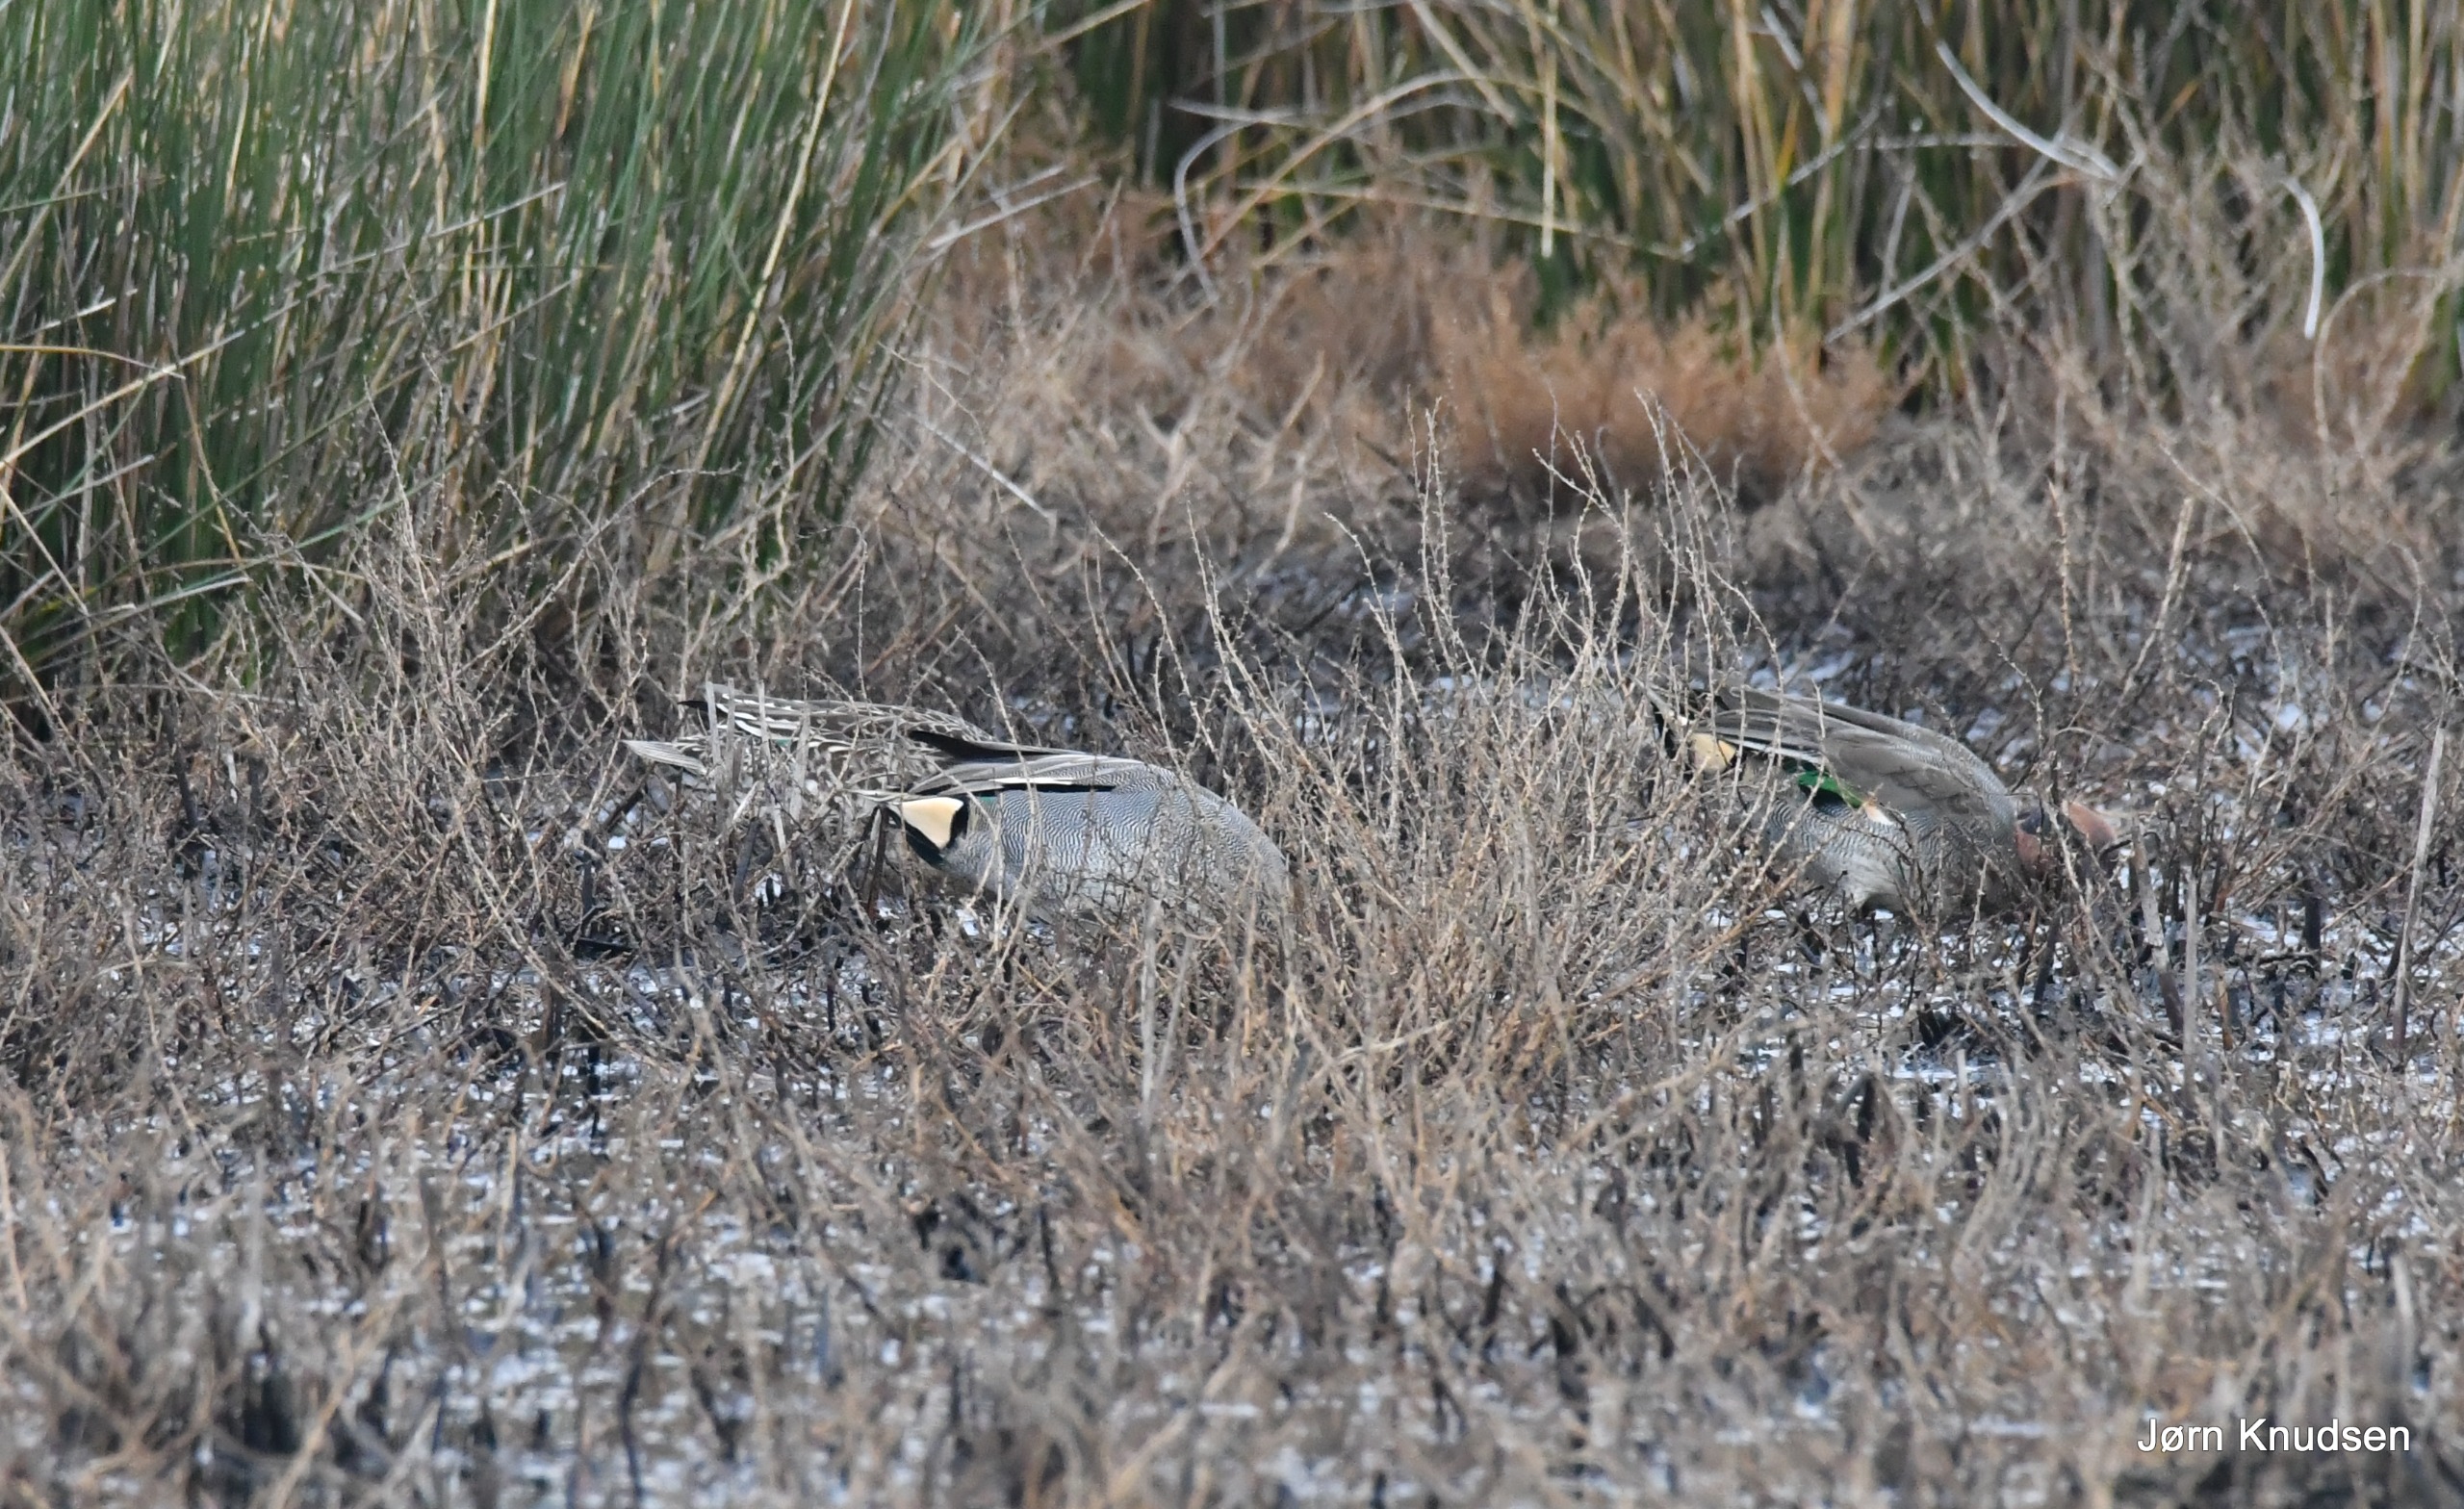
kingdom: Animalia
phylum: Chordata
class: Aves
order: Anseriformes
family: Anatidae
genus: Anas
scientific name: Anas crecca
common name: Krikand
